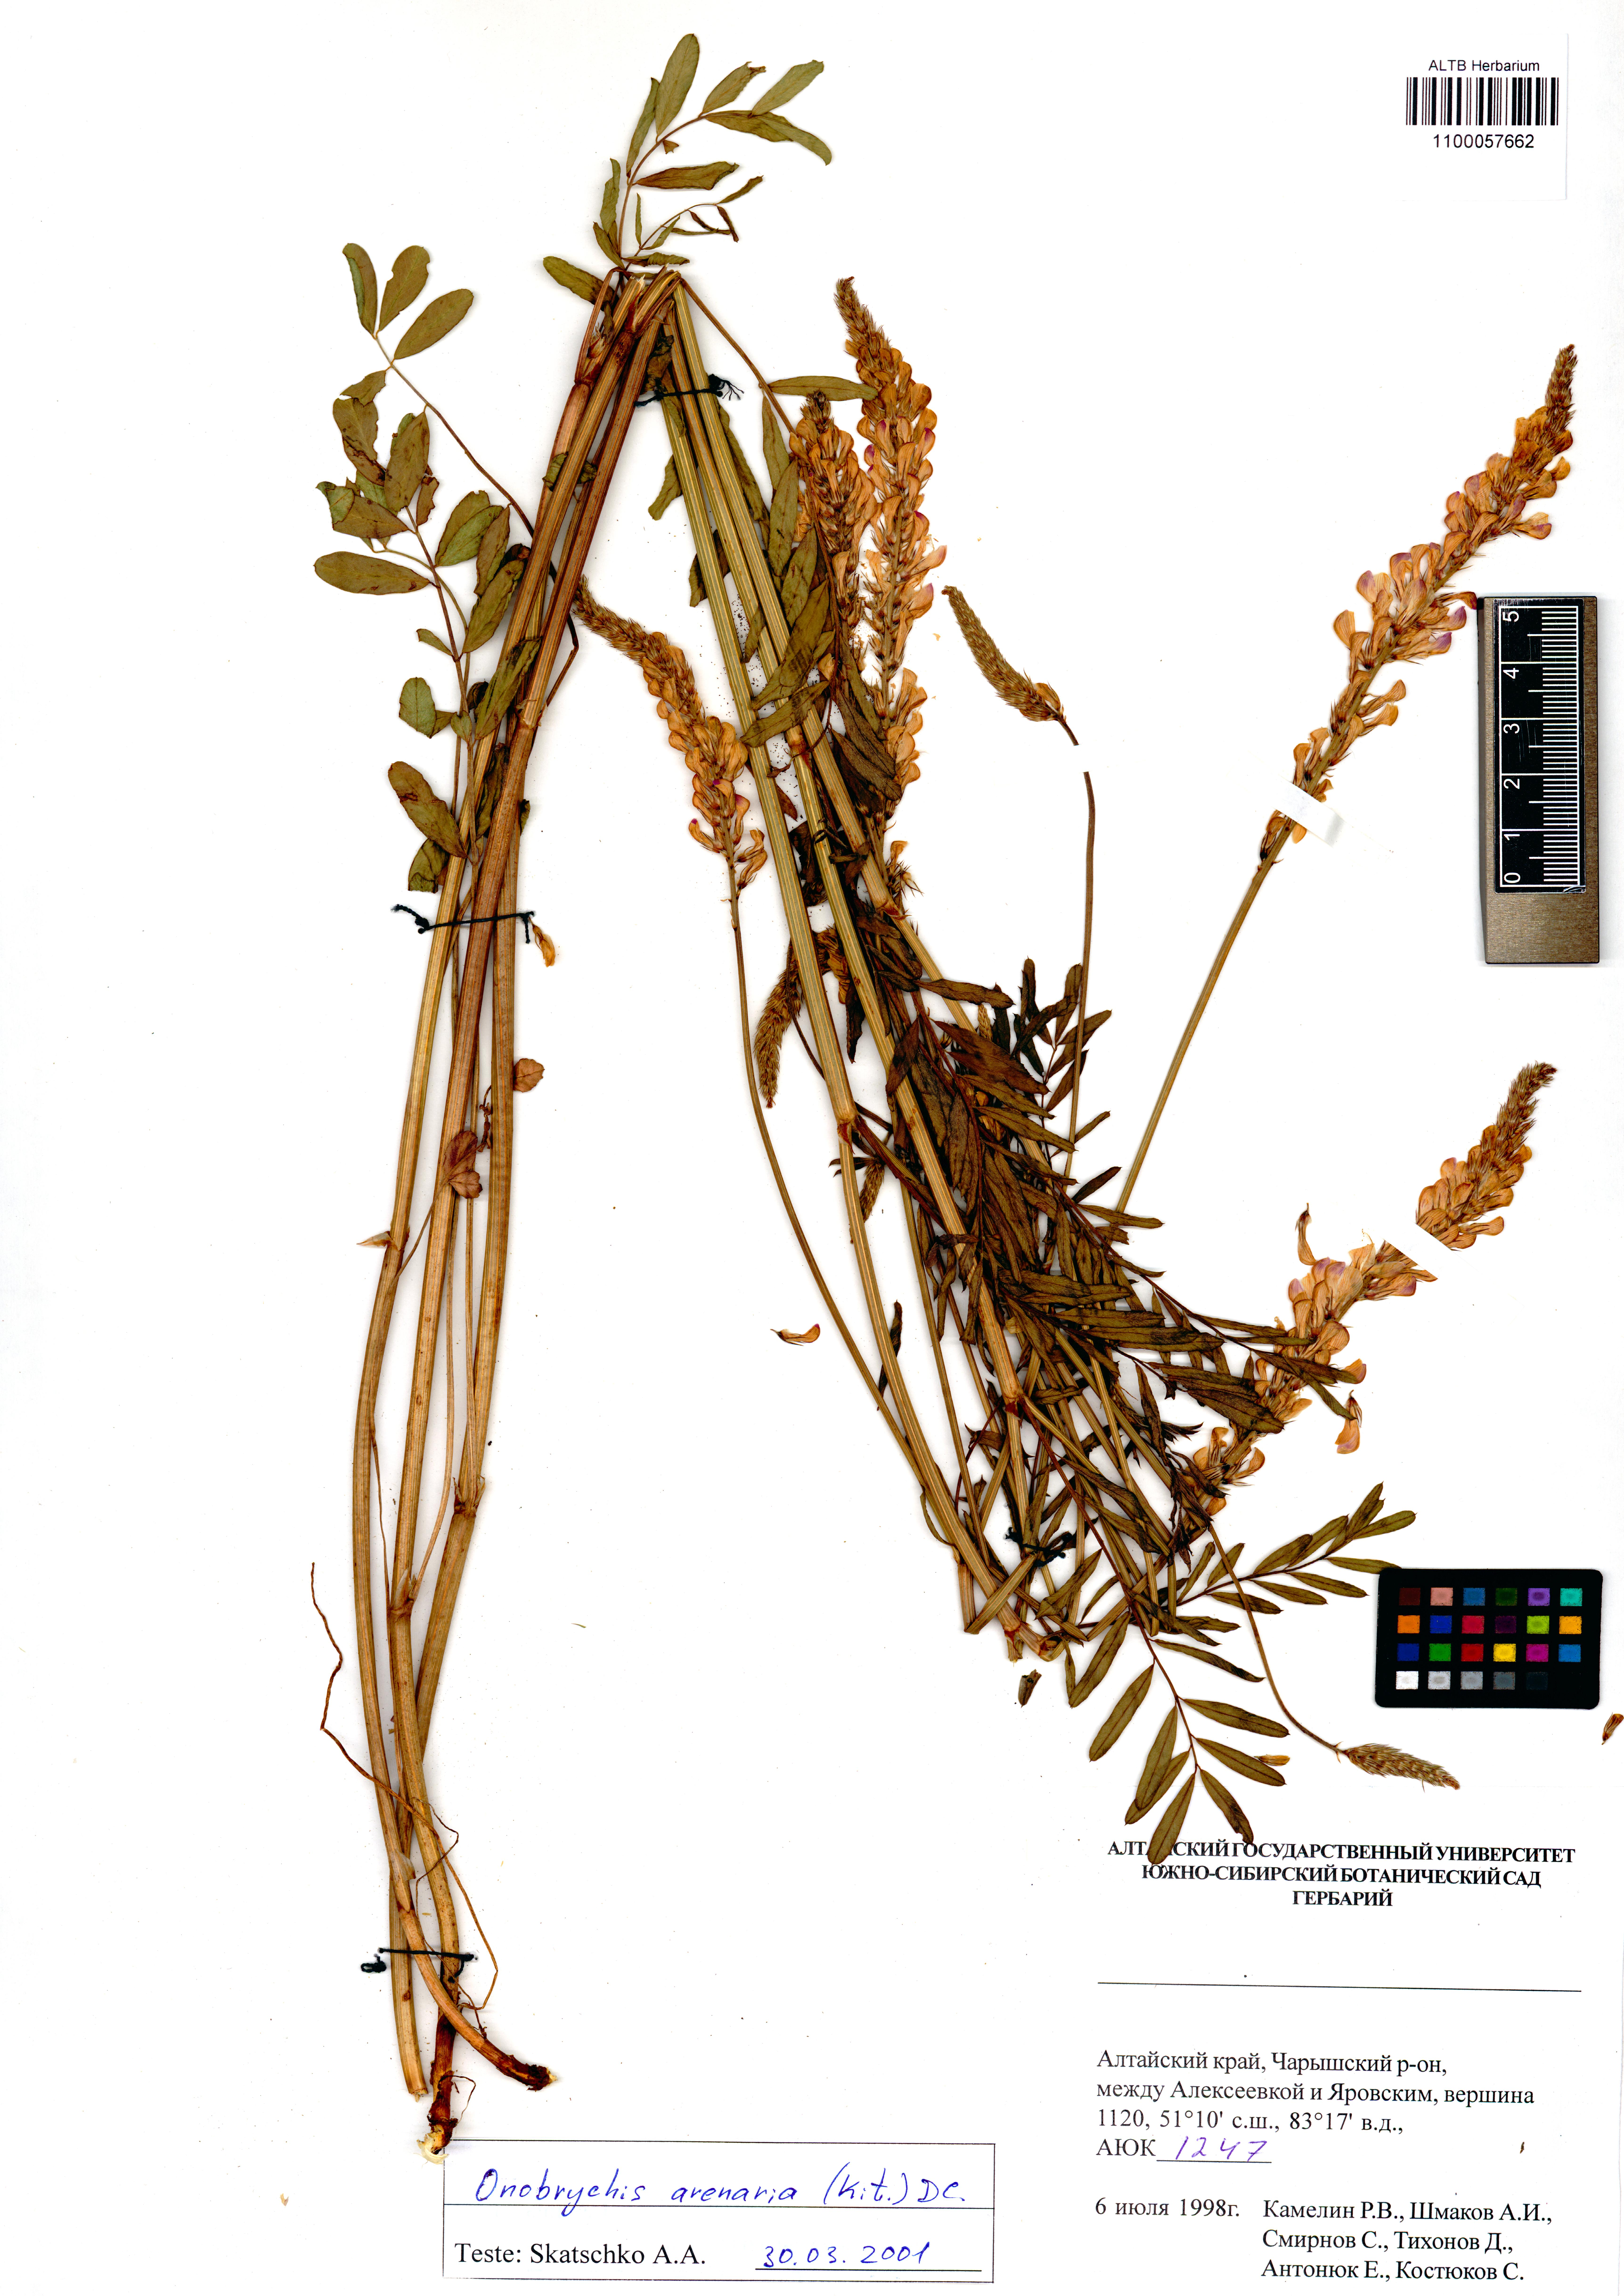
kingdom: Plantae
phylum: Tracheophyta
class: Magnoliopsida
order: Fabales
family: Fabaceae
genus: Onobrychis
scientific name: Onobrychis arenaria
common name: Sand esparcet
